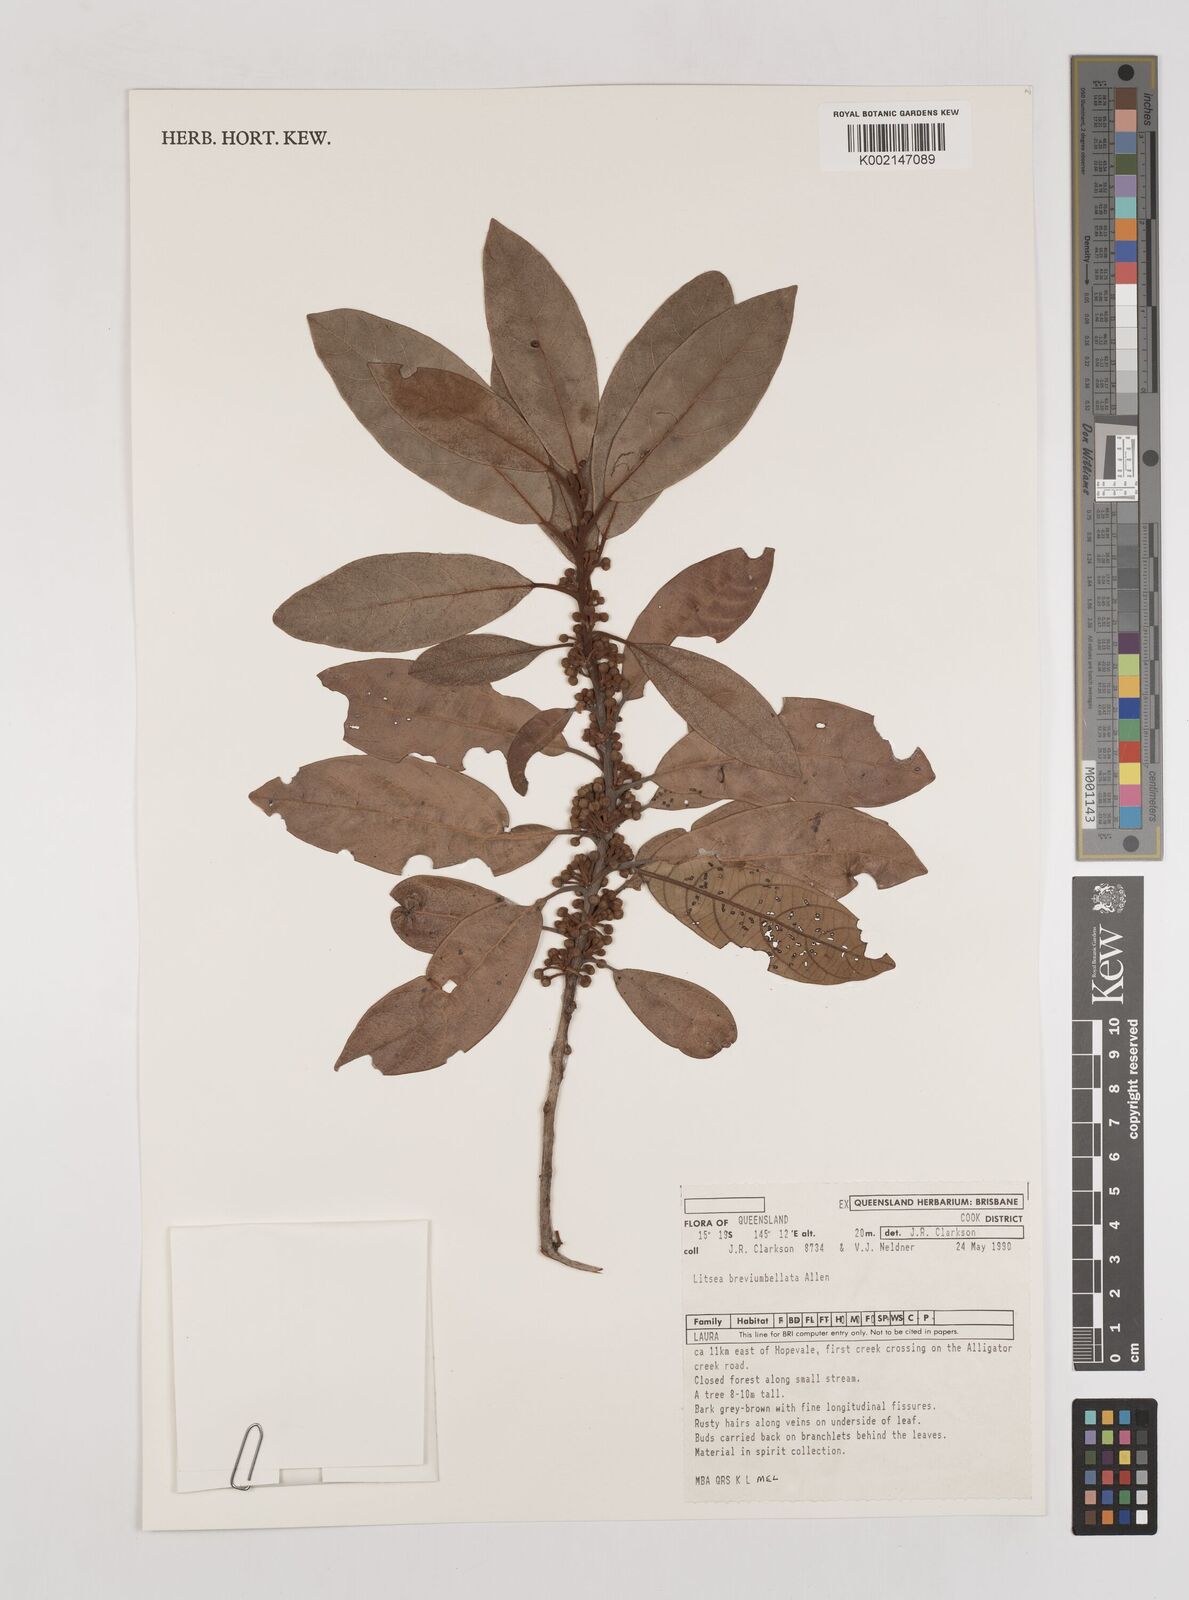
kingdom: Plantae
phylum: Tracheophyta
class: Magnoliopsida
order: Laurales
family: Lauraceae
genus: Litsea
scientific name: Litsea breviumbellata
